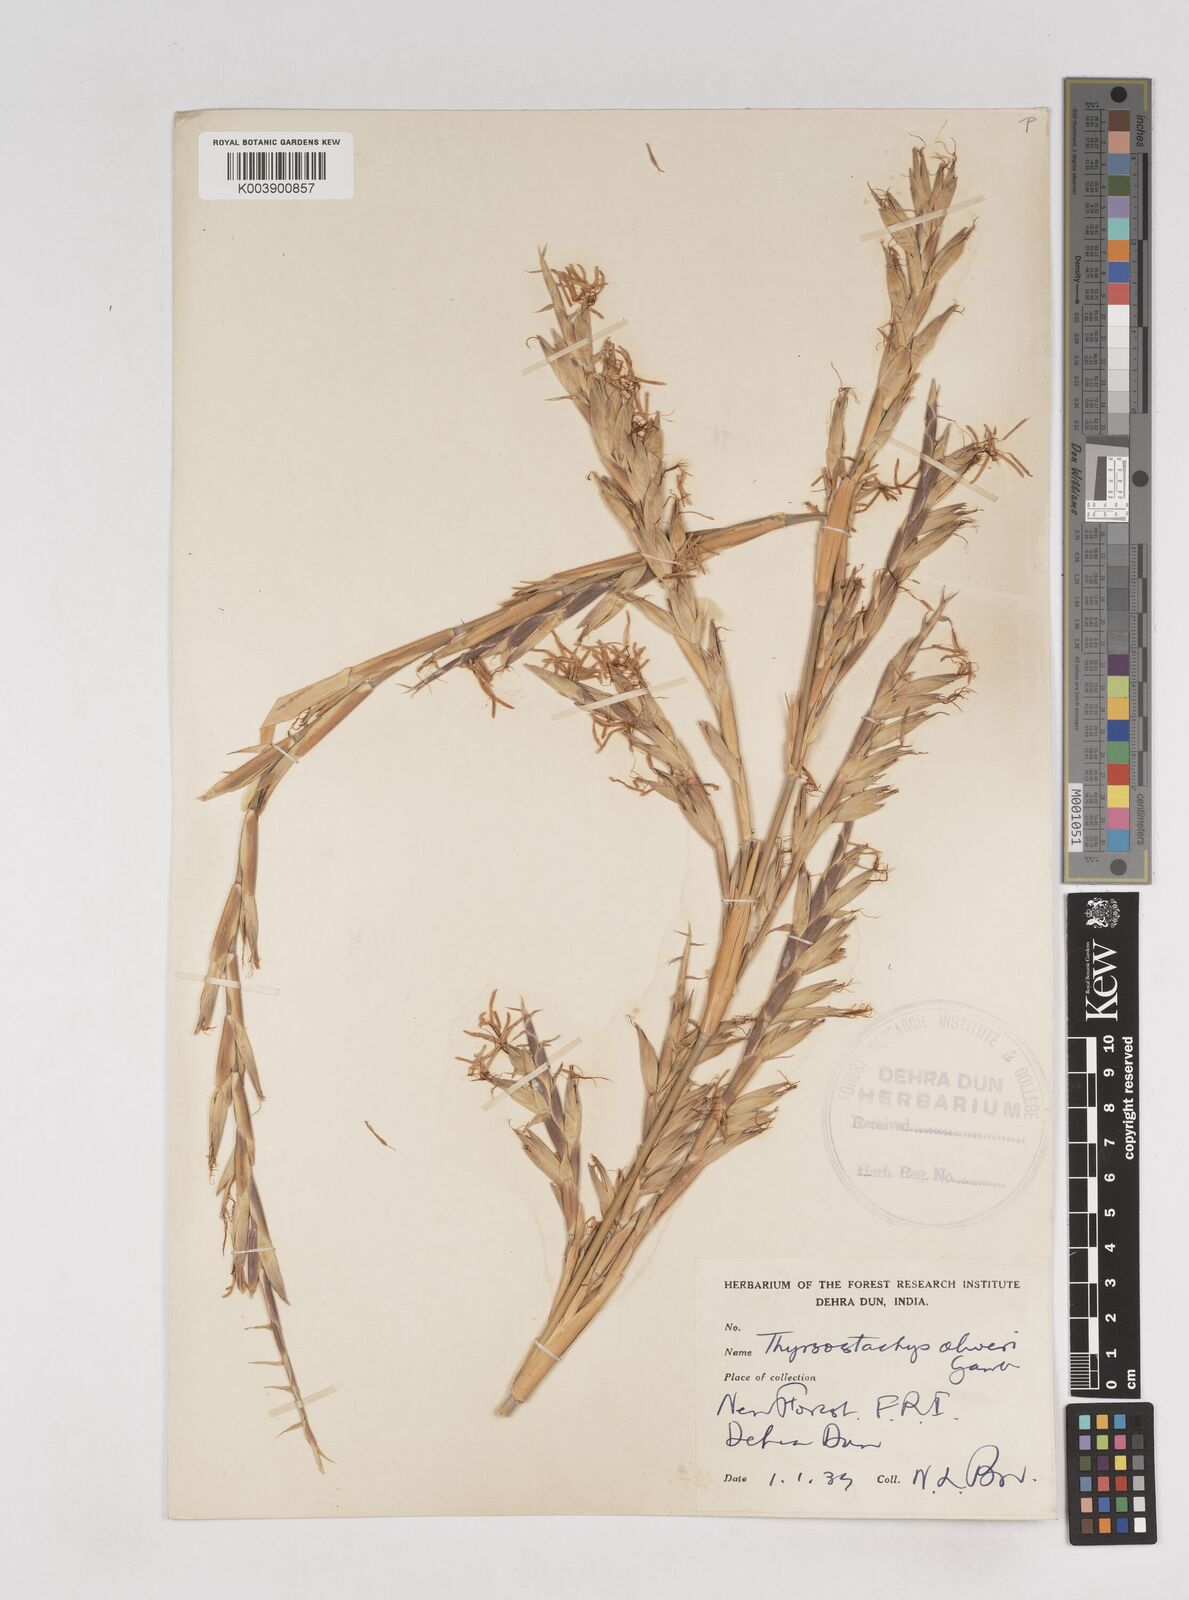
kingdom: Plantae
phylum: Tracheophyta
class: Liliopsida
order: Poales
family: Poaceae
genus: Thyrsostachys
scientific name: Thyrsostachys oliveri
